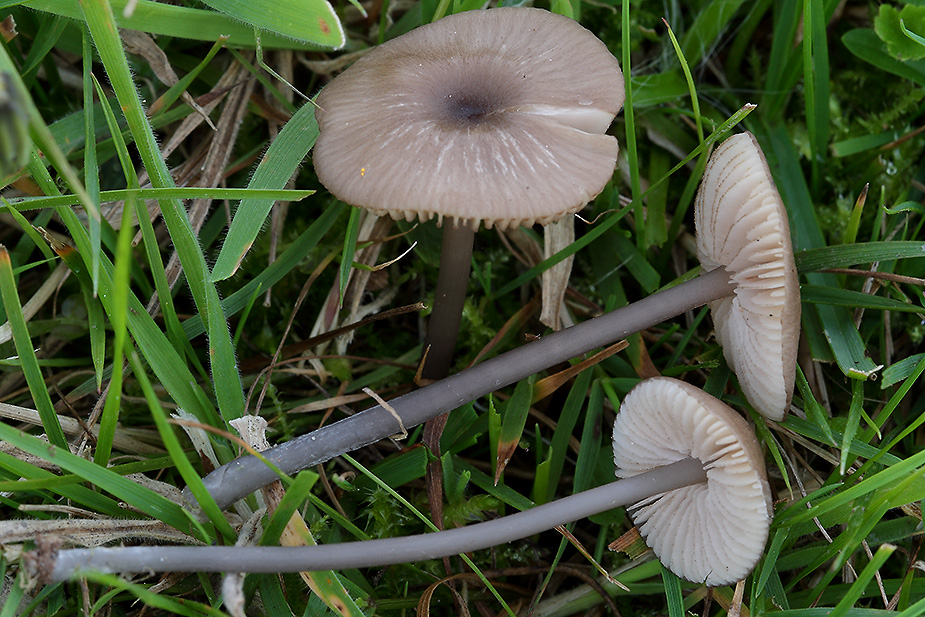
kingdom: Fungi
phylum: Basidiomycota
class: Agaricomycetes
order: Agaricales
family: Entolomataceae
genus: Entoloma
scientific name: Entoloma allospermum
